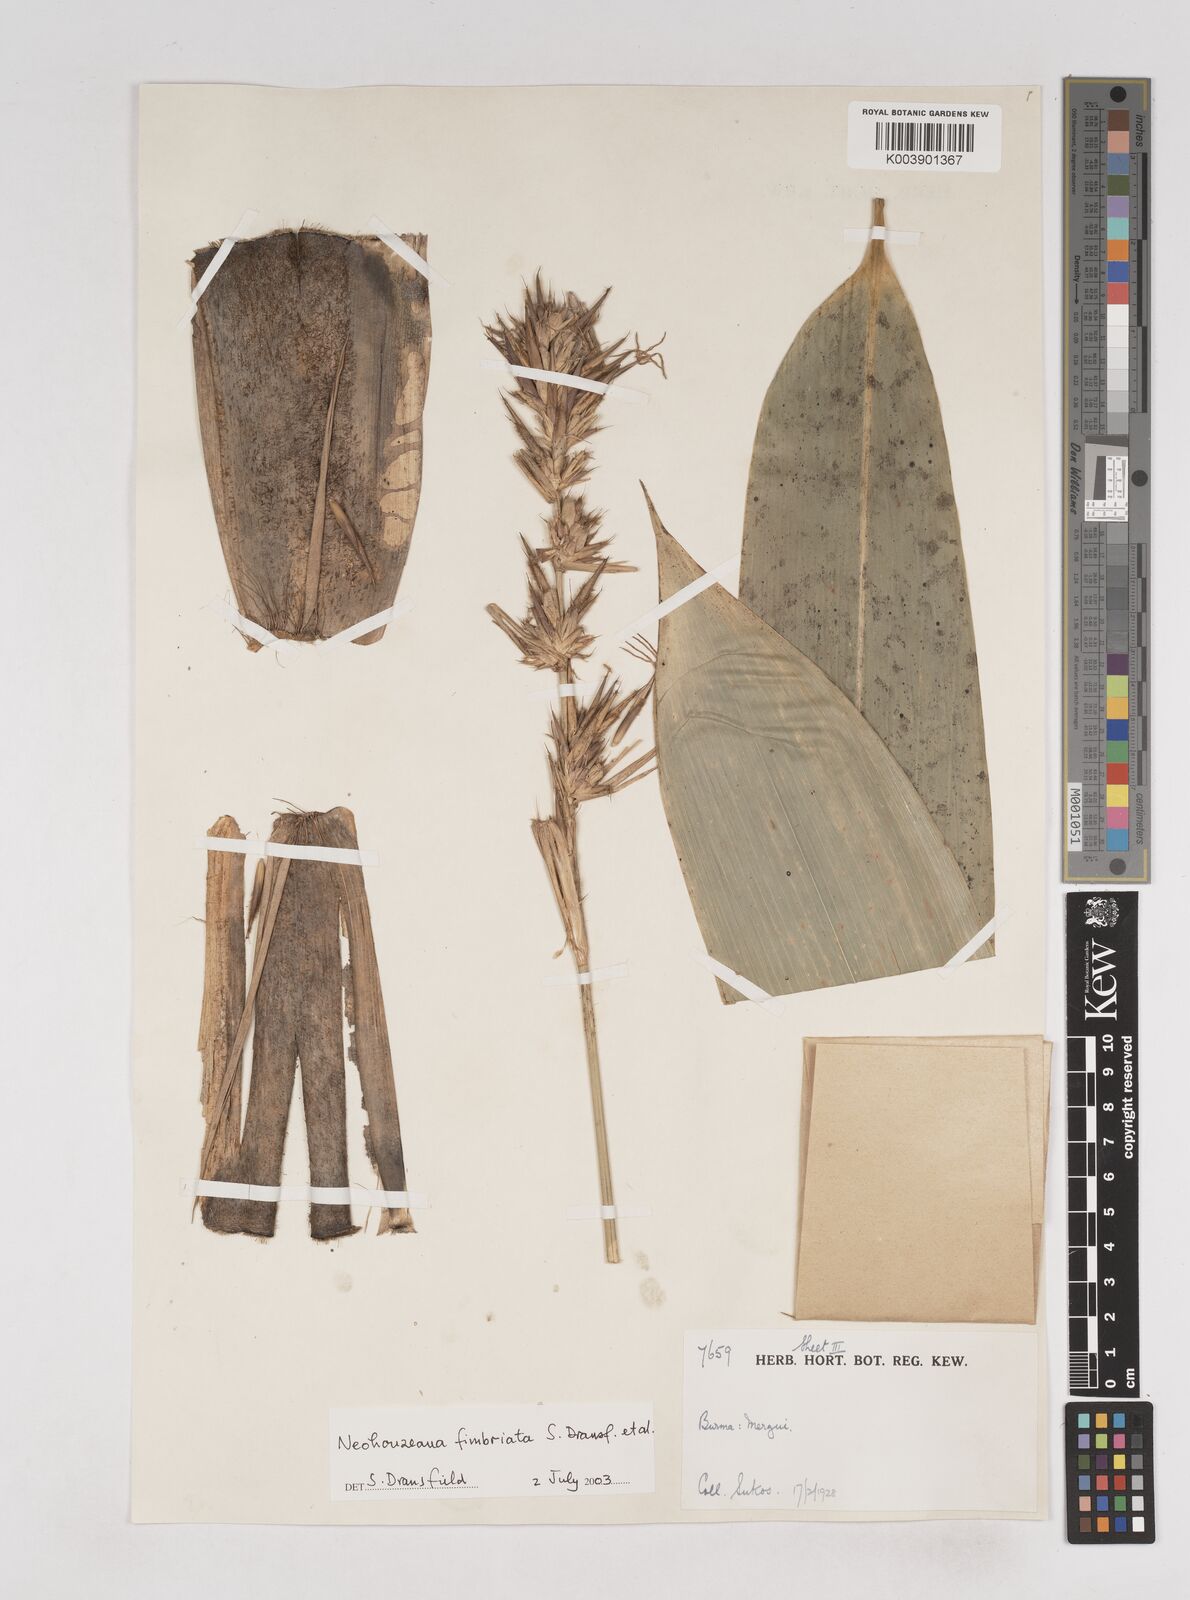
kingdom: Plantae
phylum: Tracheophyta
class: Liliopsida
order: Poales
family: Poaceae
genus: Schizostachyum
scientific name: Schizostachyum
